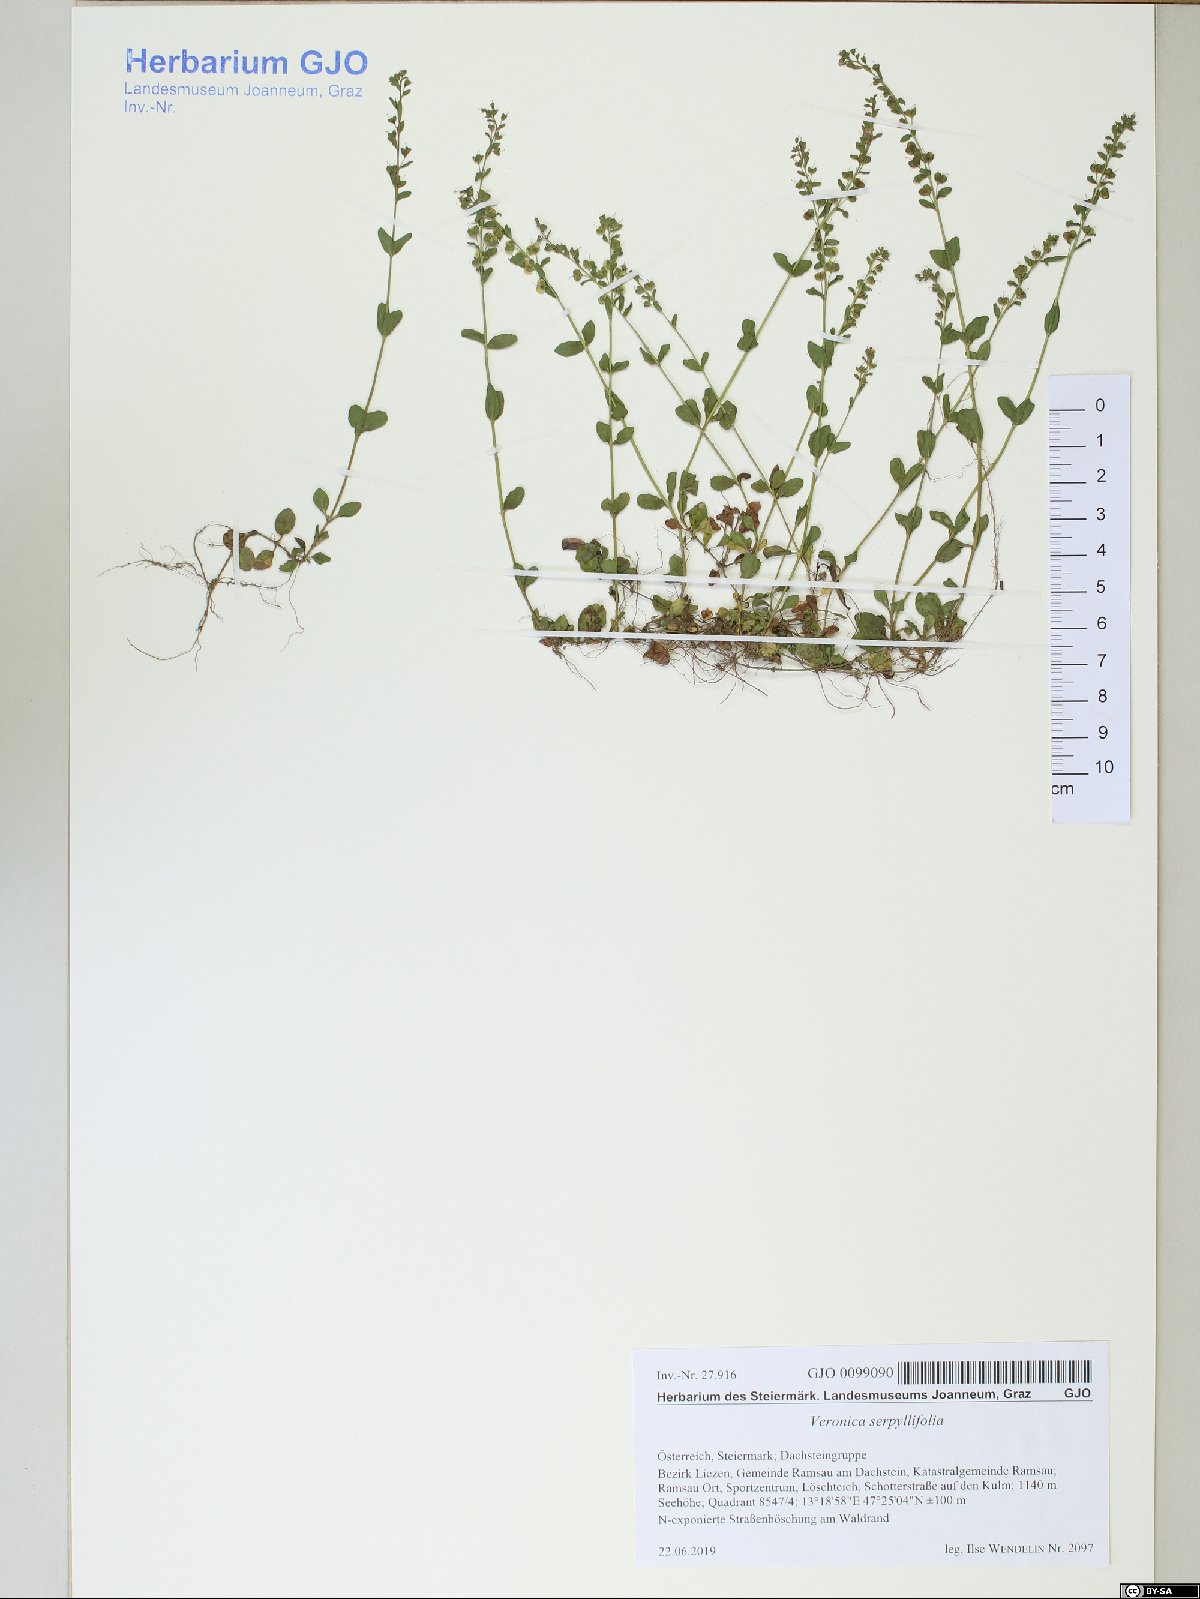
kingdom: Plantae
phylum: Tracheophyta
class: Magnoliopsida
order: Lamiales
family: Plantaginaceae
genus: Veronica
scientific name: Veronica serpyllifolia
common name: Thyme-leaved speedwell
